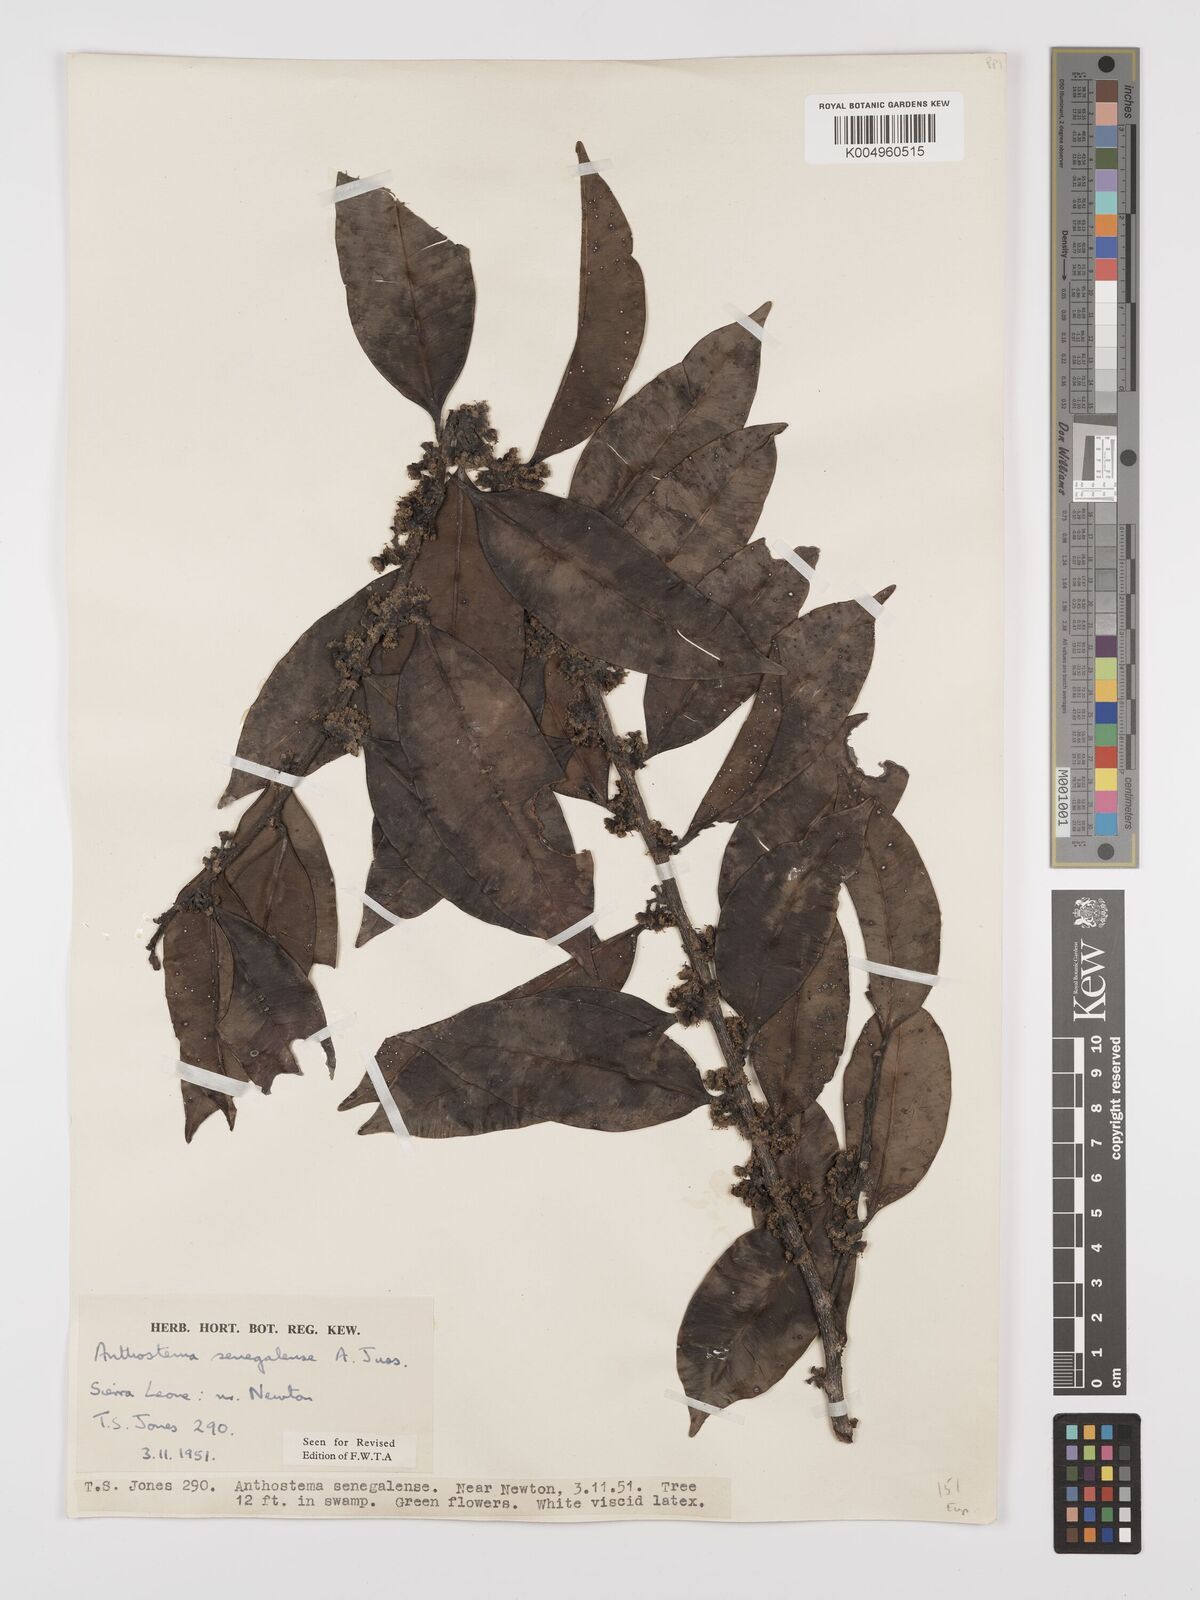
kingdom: Plantae
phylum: Tracheophyta
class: Magnoliopsida
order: Malpighiales
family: Euphorbiaceae
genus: Anthostema
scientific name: Anthostema senegalense
